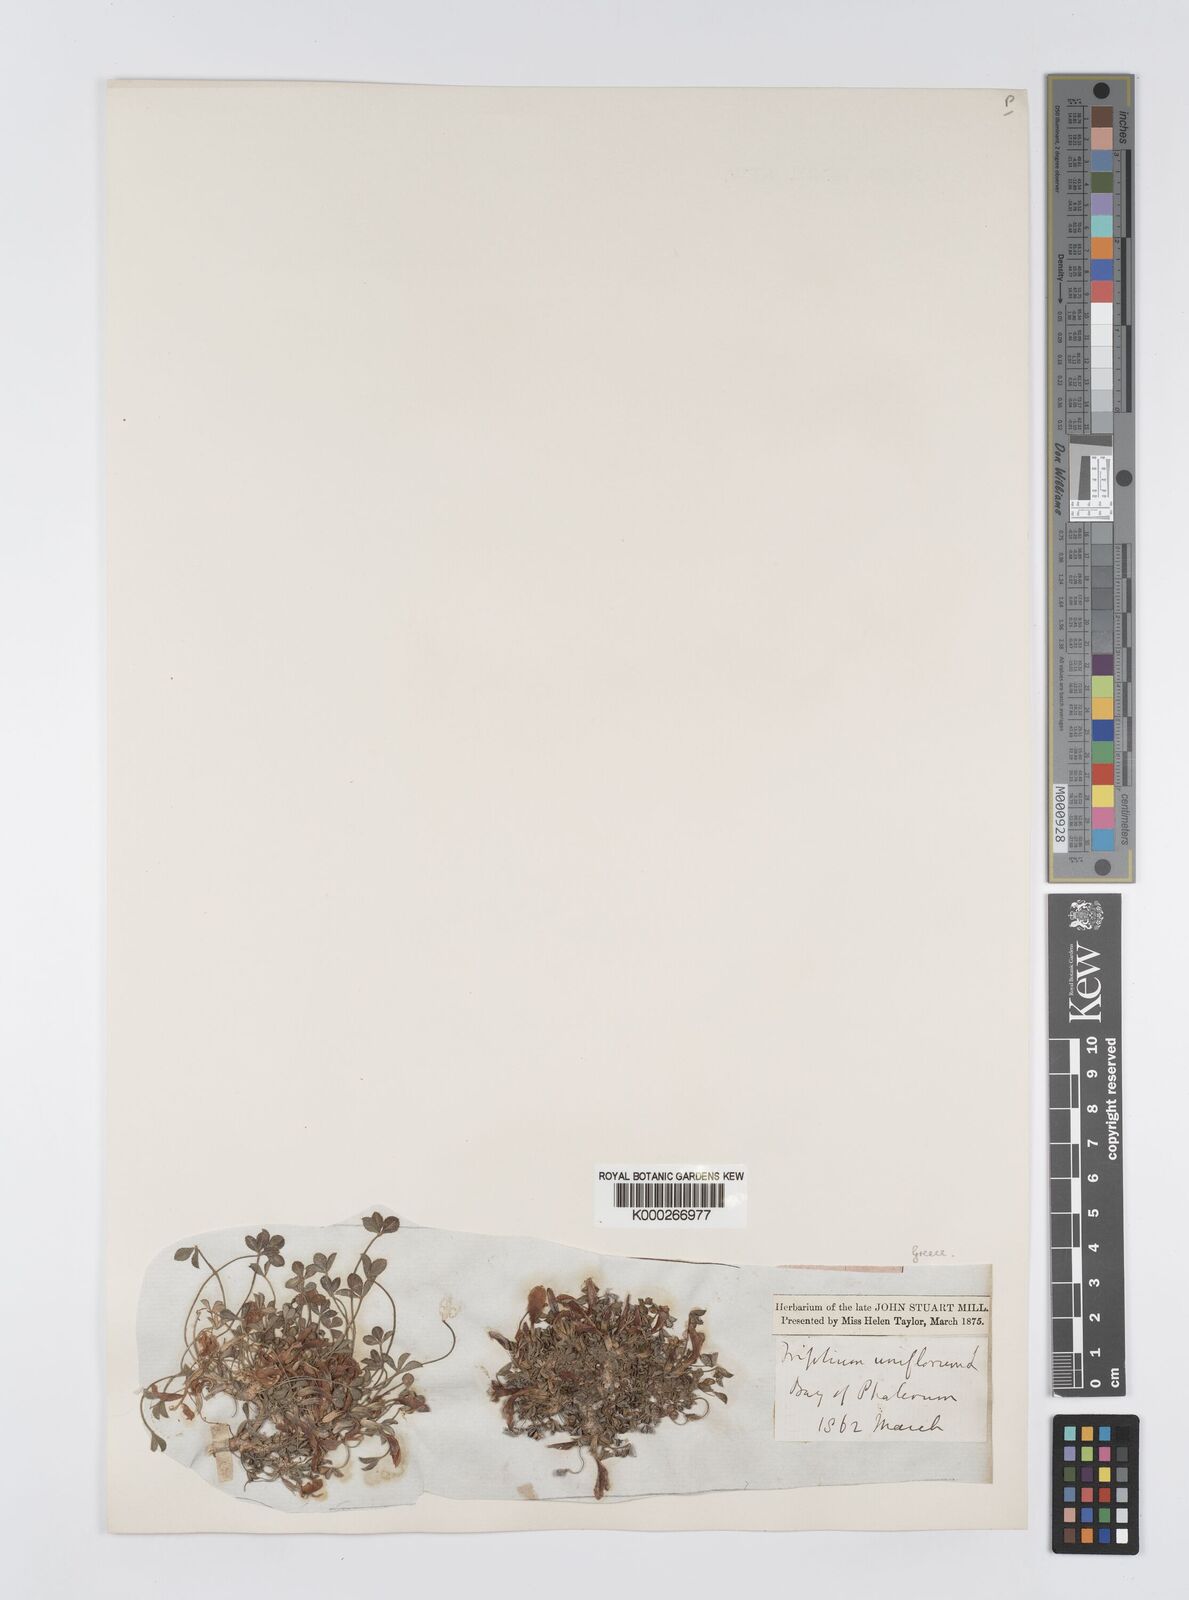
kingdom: Plantae
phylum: Tracheophyta
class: Magnoliopsida
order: Fabales
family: Fabaceae
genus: Trifolium
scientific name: Trifolium uniflorum
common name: One-flower clover
